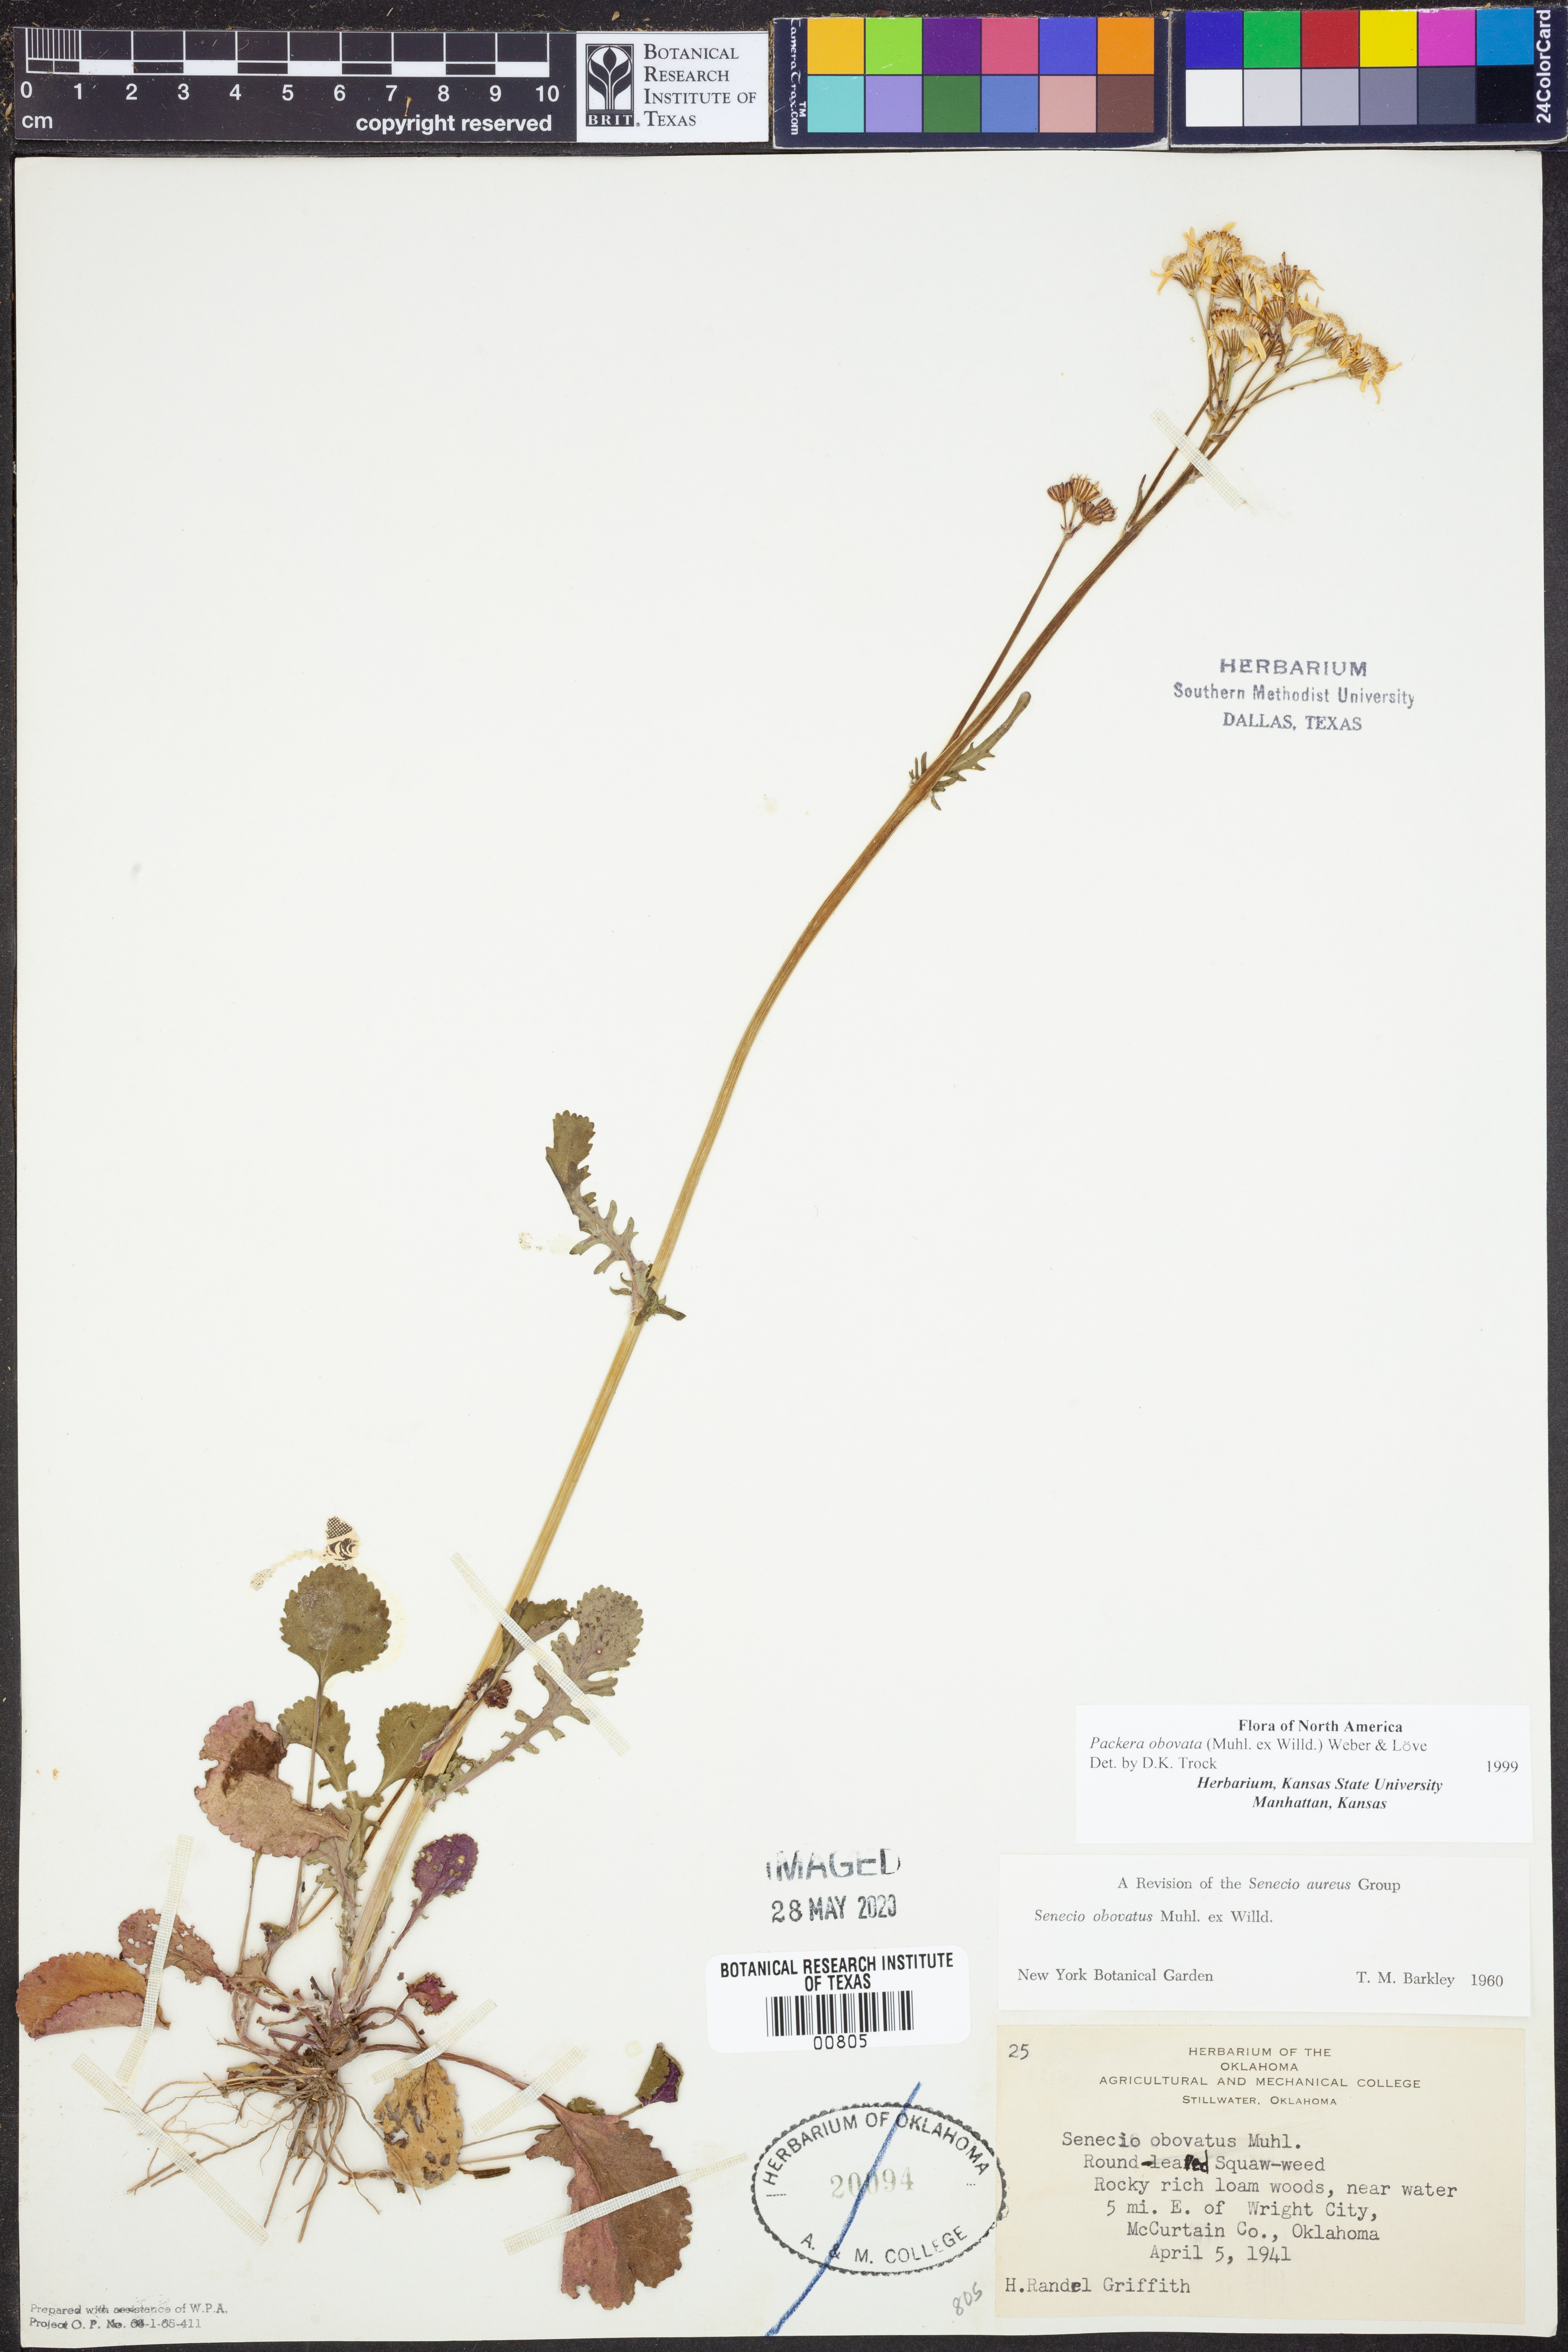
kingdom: Plantae
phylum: Tracheophyta
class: Magnoliopsida
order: Asterales
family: Asteraceae
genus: Packera
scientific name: Packera obovata
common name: Round-leaf ragwort
